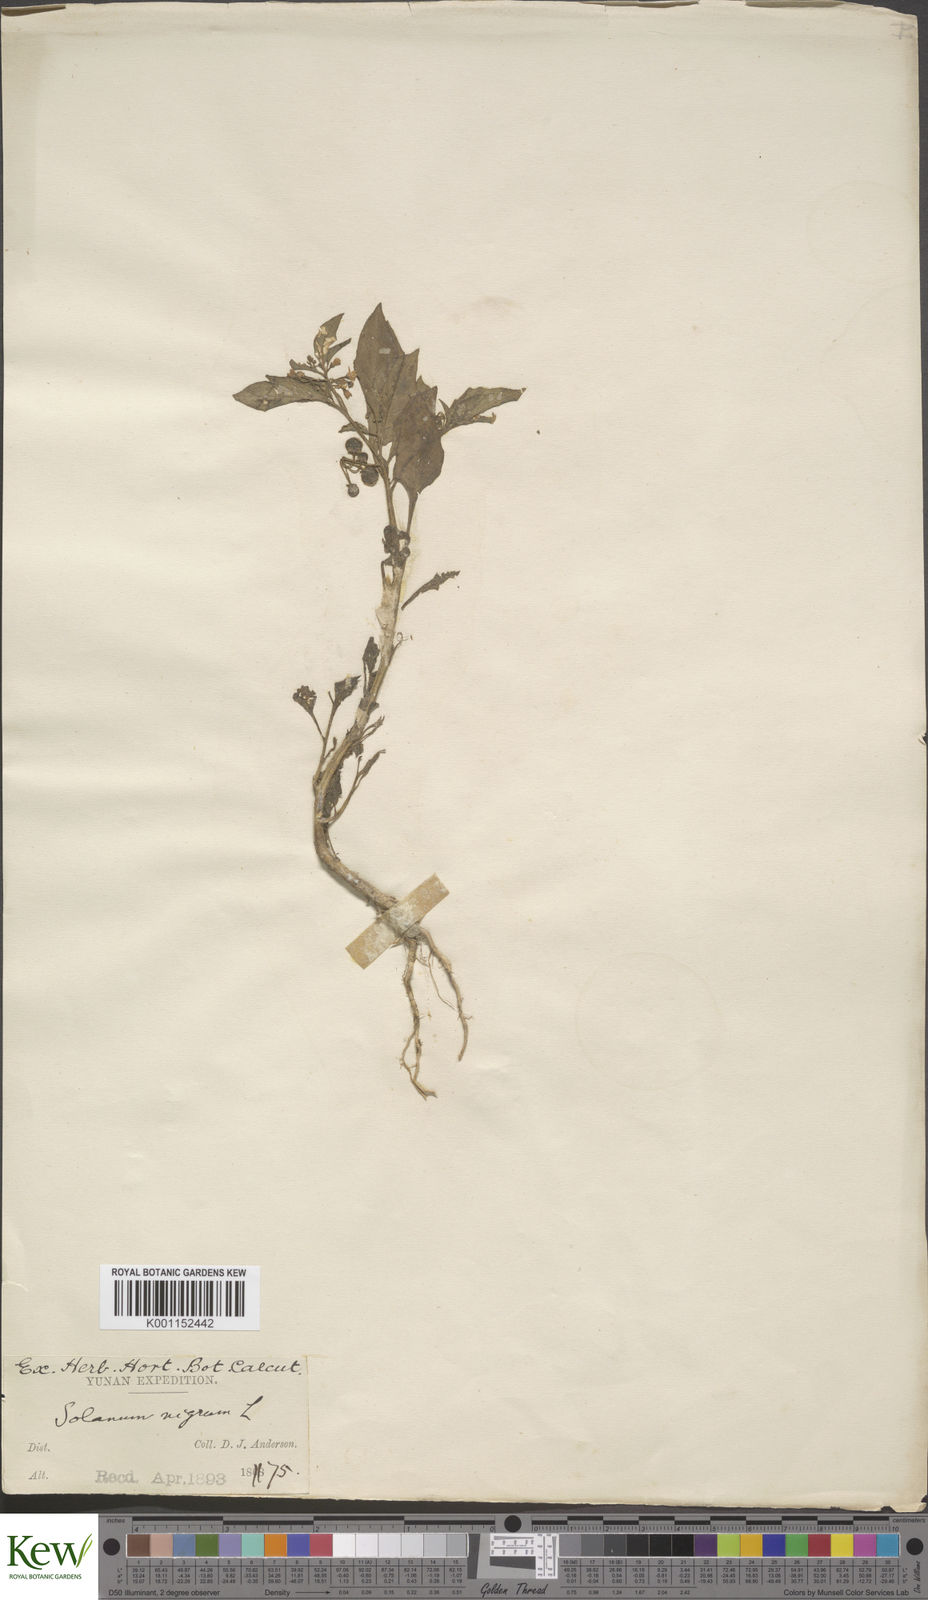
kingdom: Plantae
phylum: Tracheophyta
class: Magnoliopsida
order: Solanales
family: Solanaceae
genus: Solanum
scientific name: Solanum americanum
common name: American black nightshade
